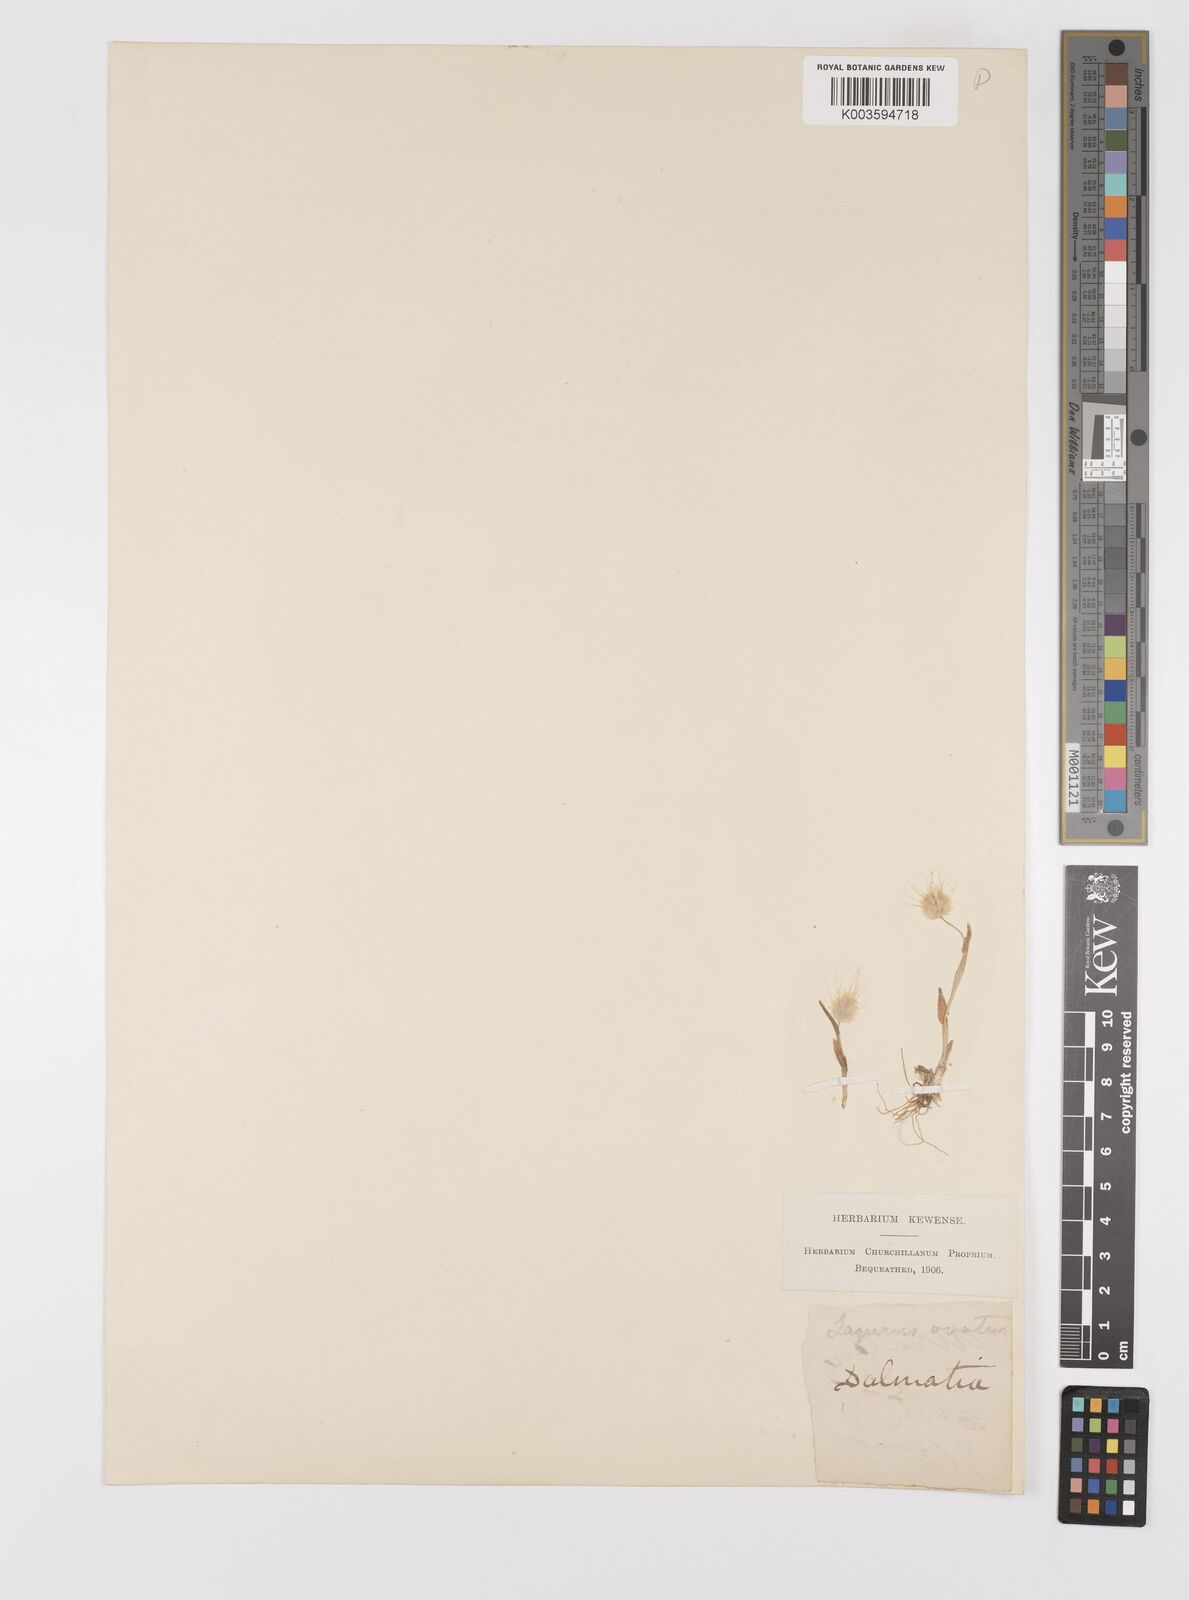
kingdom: Plantae
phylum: Tracheophyta
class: Liliopsida
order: Poales
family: Poaceae
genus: Lagurus
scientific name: Lagurus ovatus
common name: Hare's-tail
